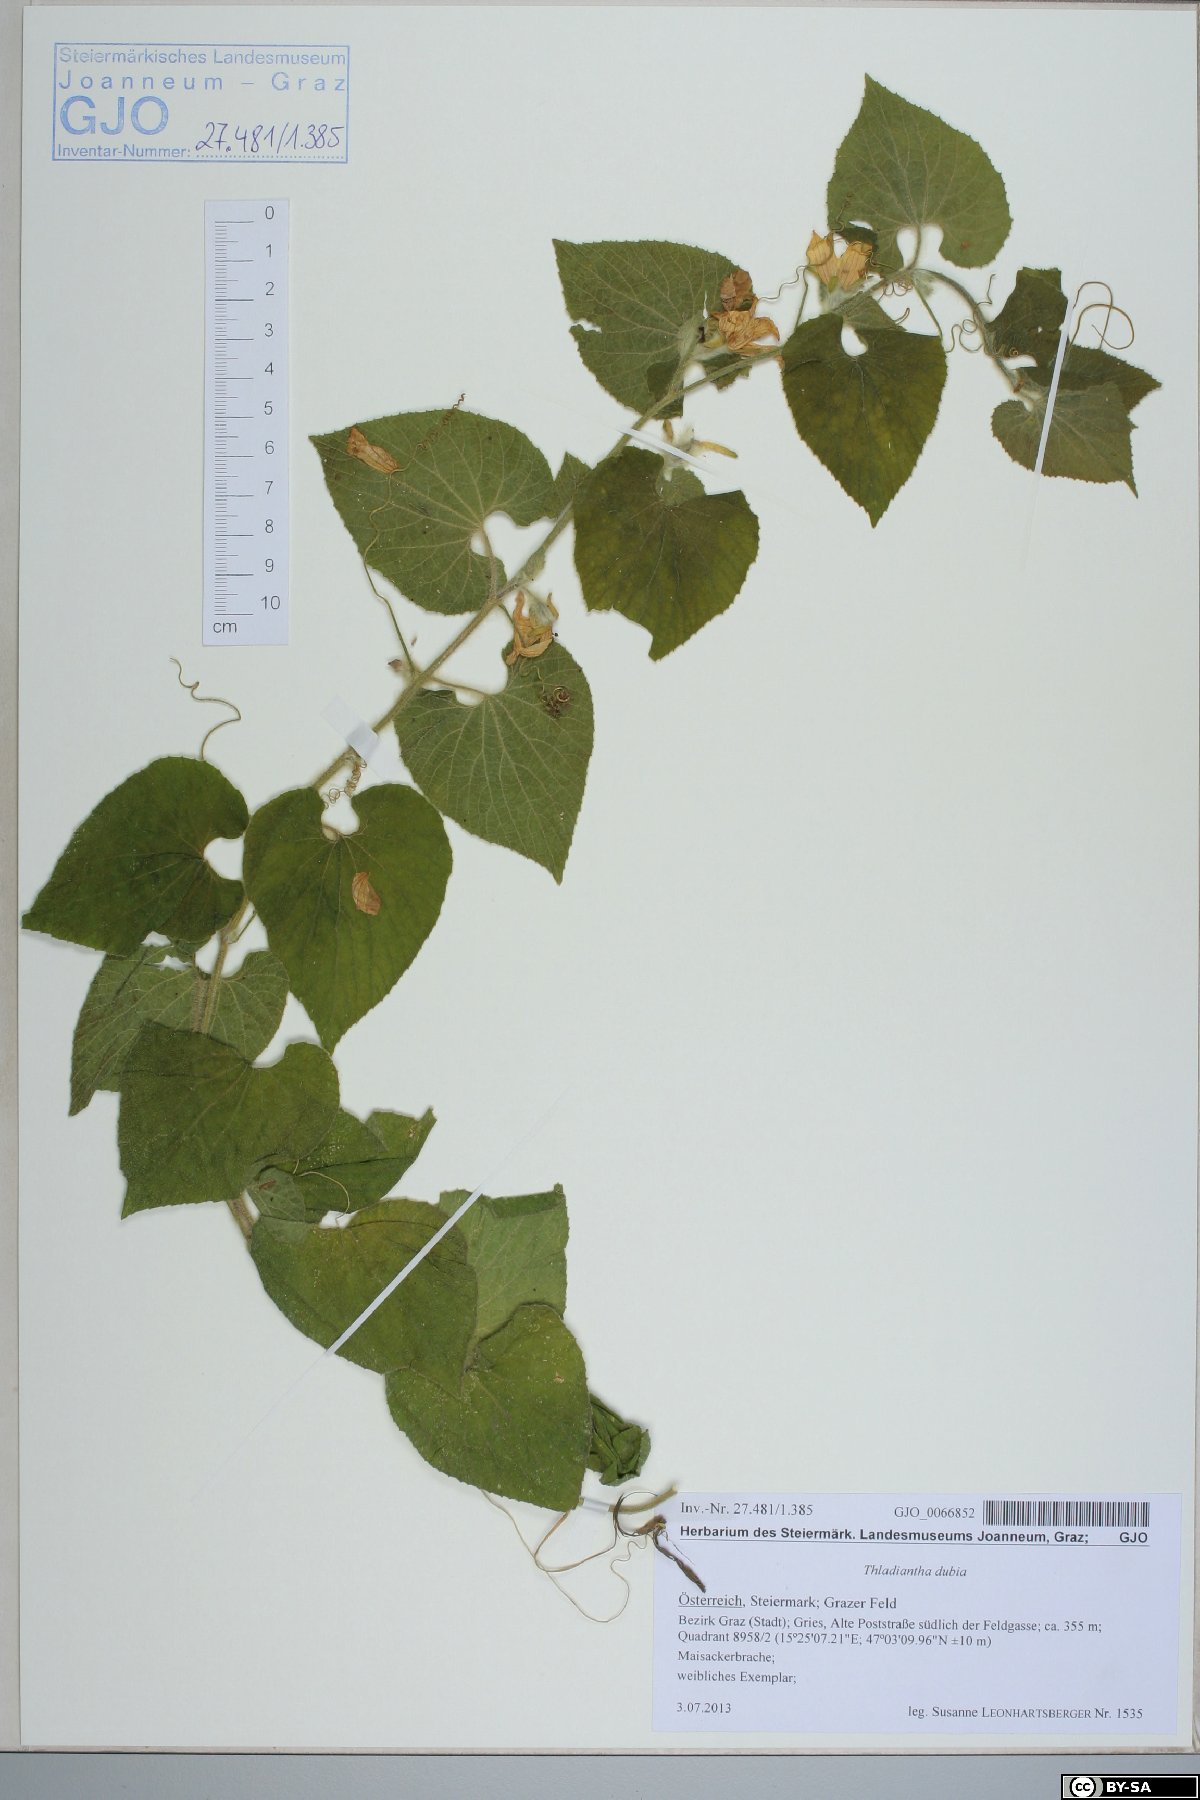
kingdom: Plantae
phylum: Tracheophyta
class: Magnoliopsida
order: Cucurbitales
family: Cucurbitaceae
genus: Thladiantha
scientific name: Thladiantha dubia
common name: Manchu tubergourd
